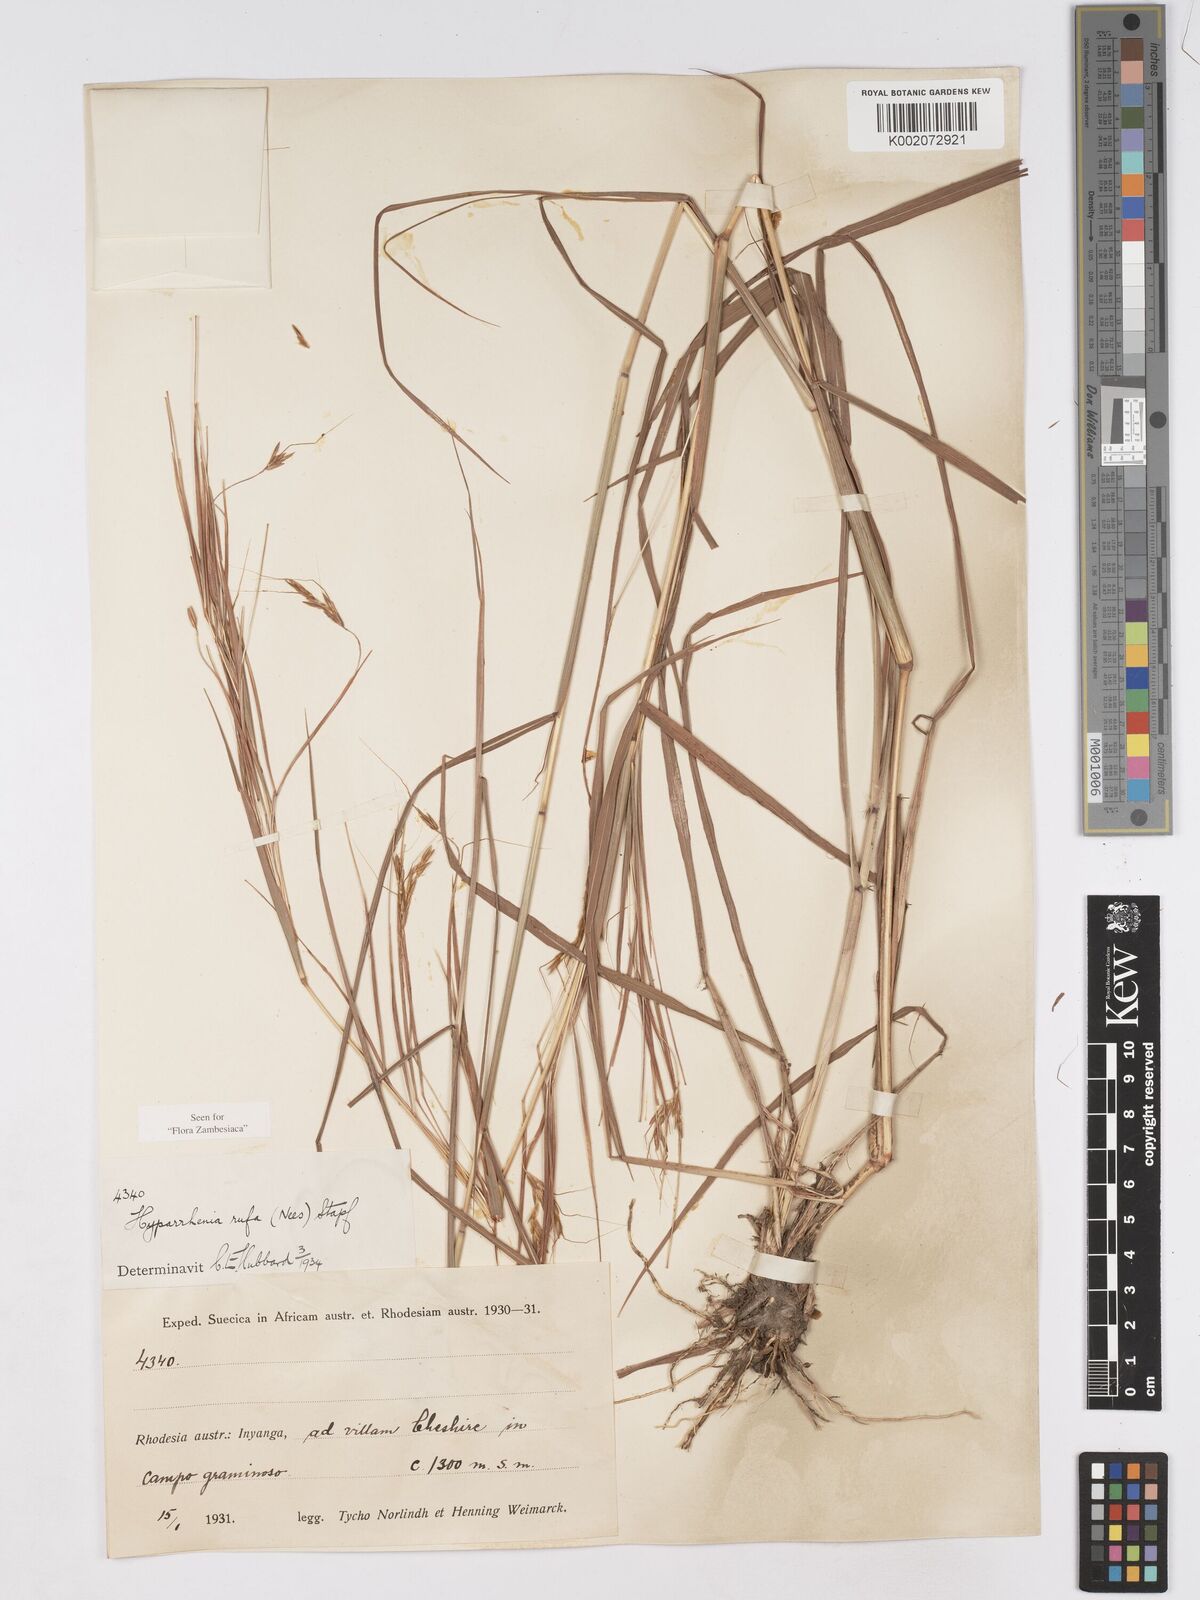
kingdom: Plantae
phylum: Tracheophyta
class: Liliopsida
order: Poales
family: Poaceae
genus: Hyparrhenia
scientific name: Hyparrhenia rufa
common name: Jaraguagrass
